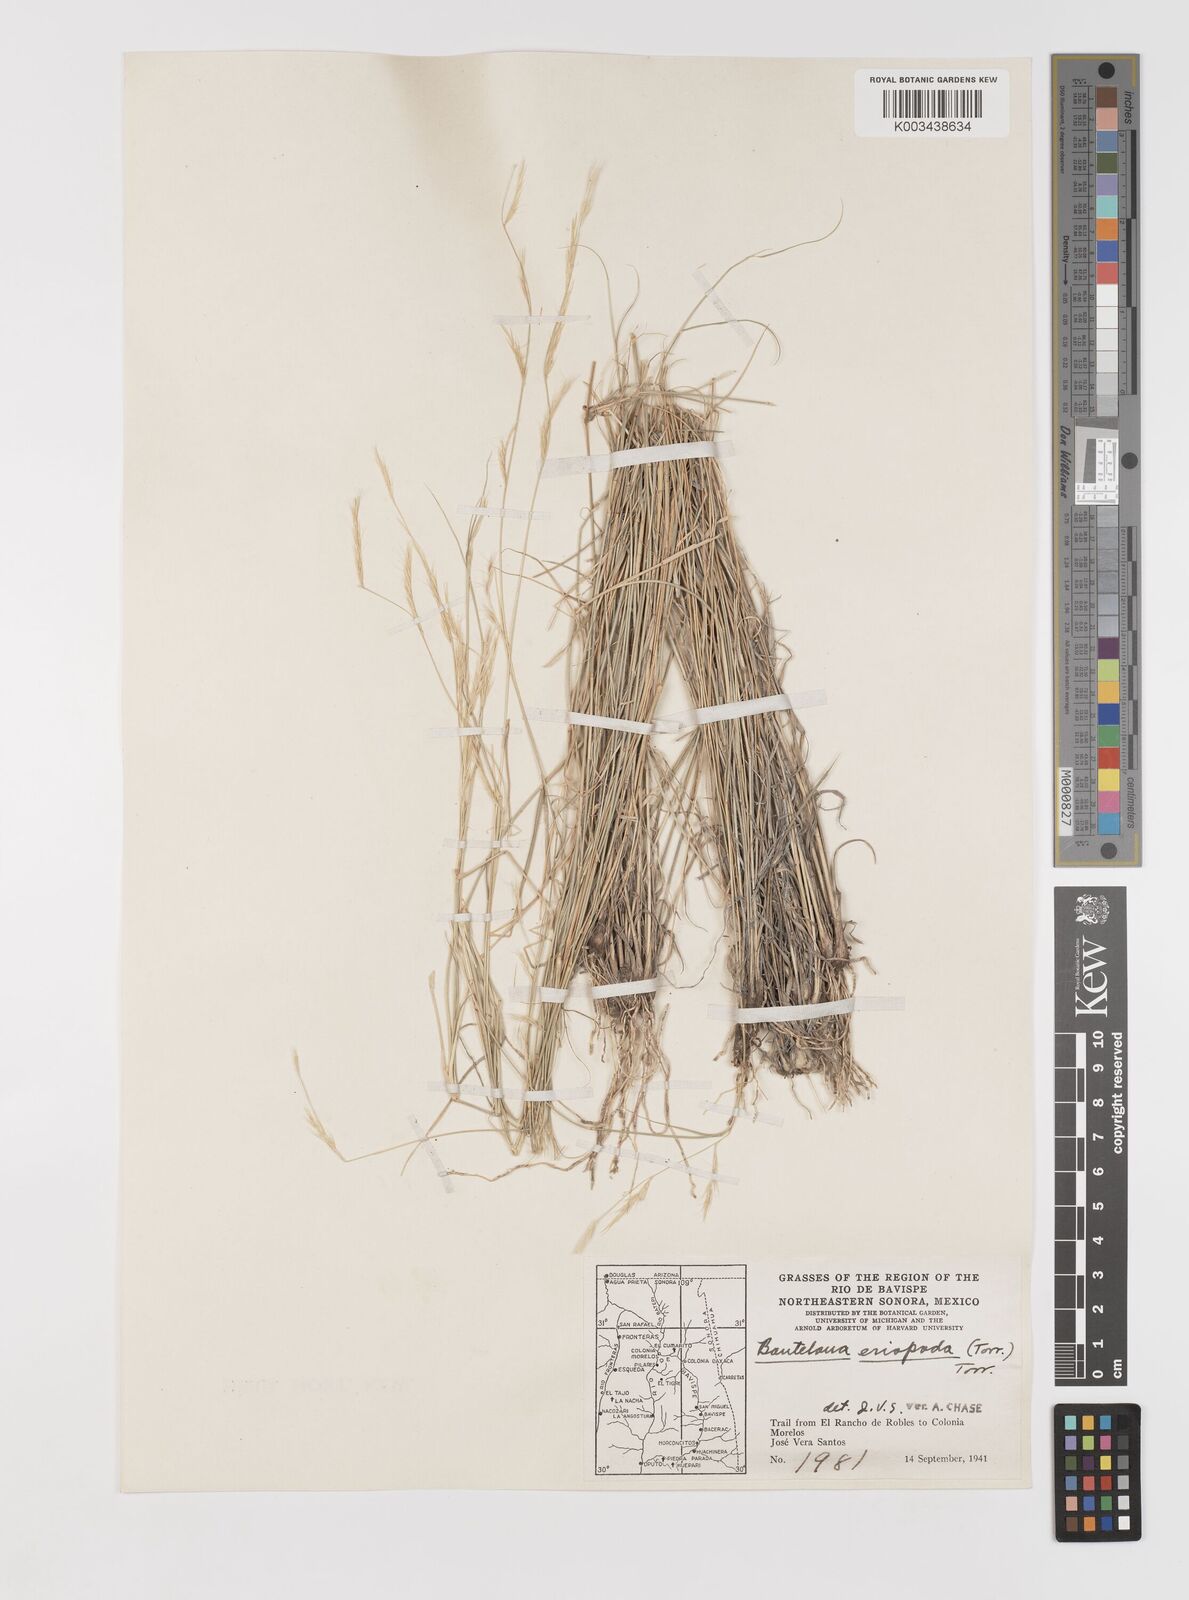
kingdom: Plantae
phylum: Tracheophyta
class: Liliopsida
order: Poales
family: Poaceae
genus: Bouteloua
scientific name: Bouteloua eriopoda
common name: Woolly foot grama
